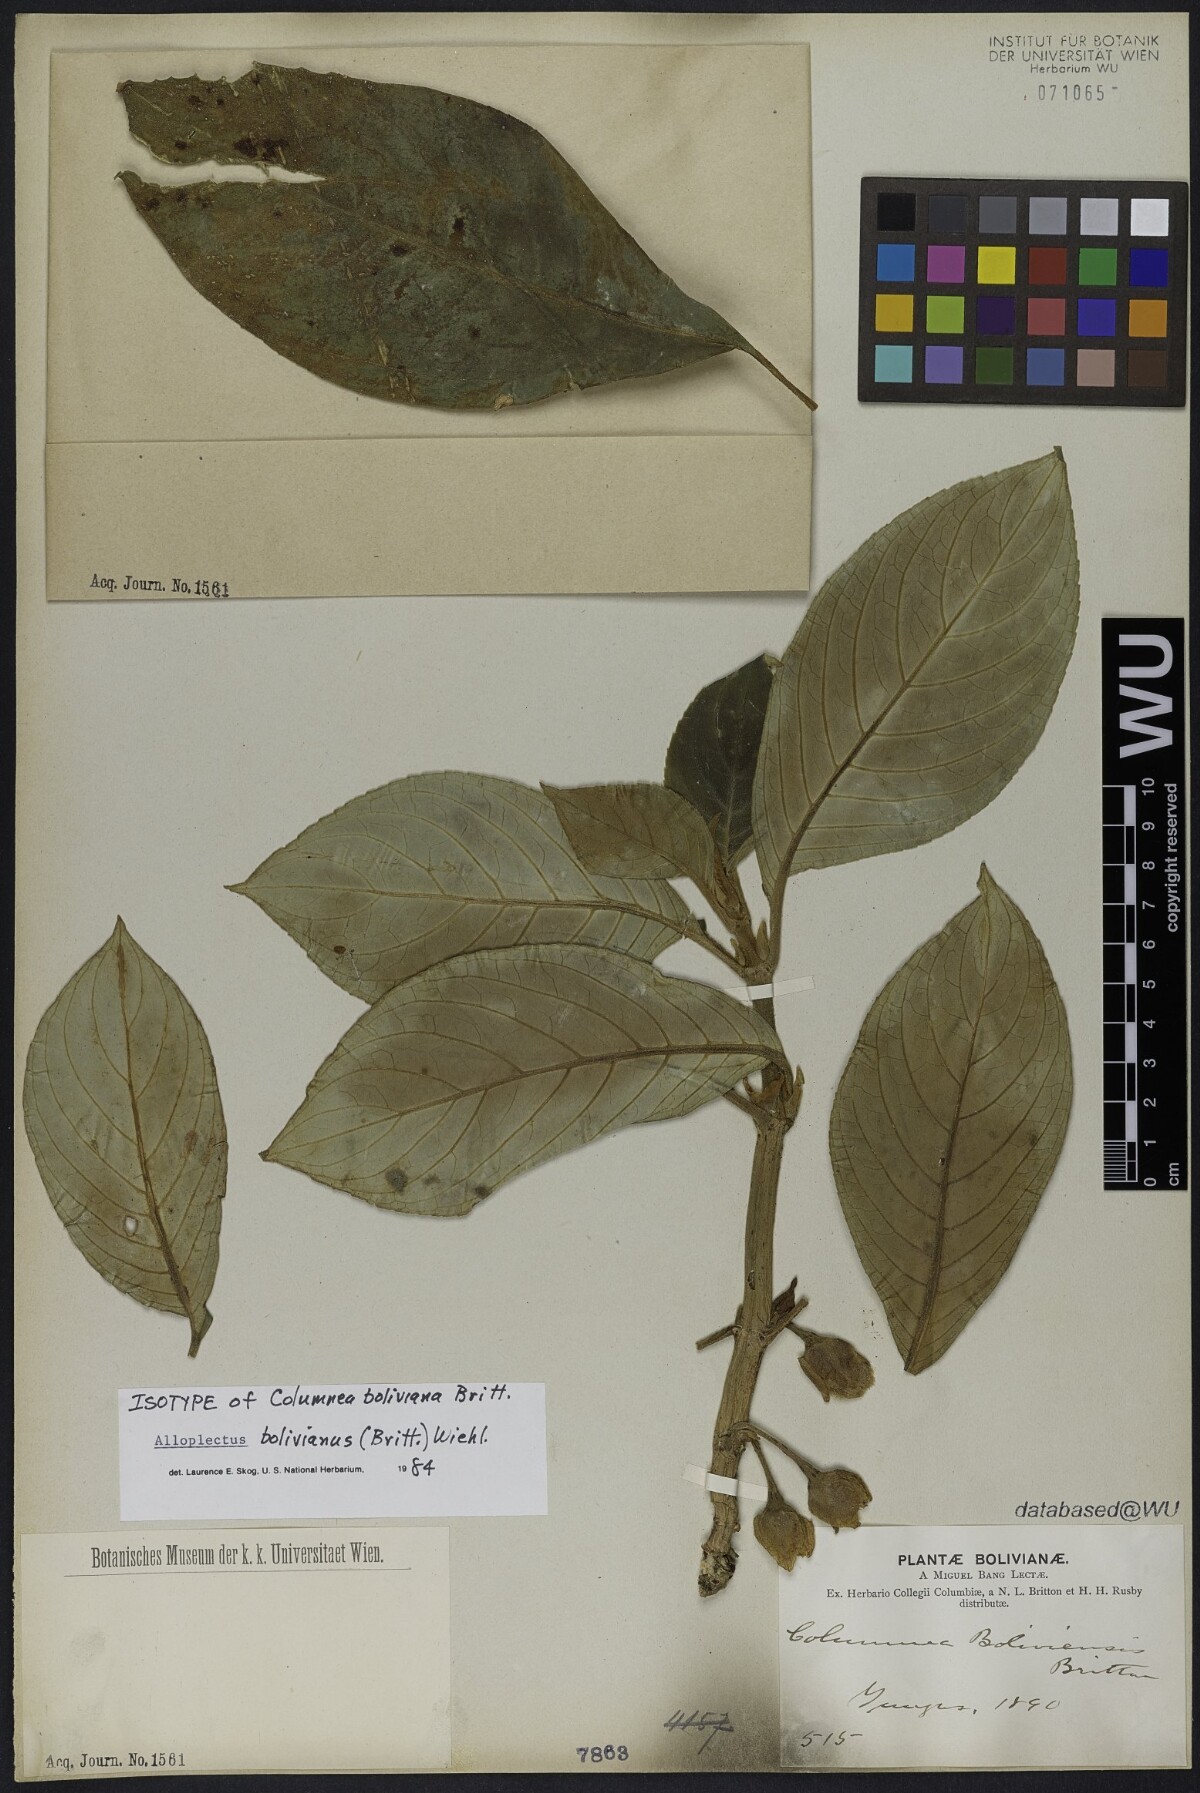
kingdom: Plantae
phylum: Tracheophyta
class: Magnoliopsida
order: Lamiales
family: Gesneriaceae
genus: Glossoloma
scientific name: Glossoloma bolivianum
